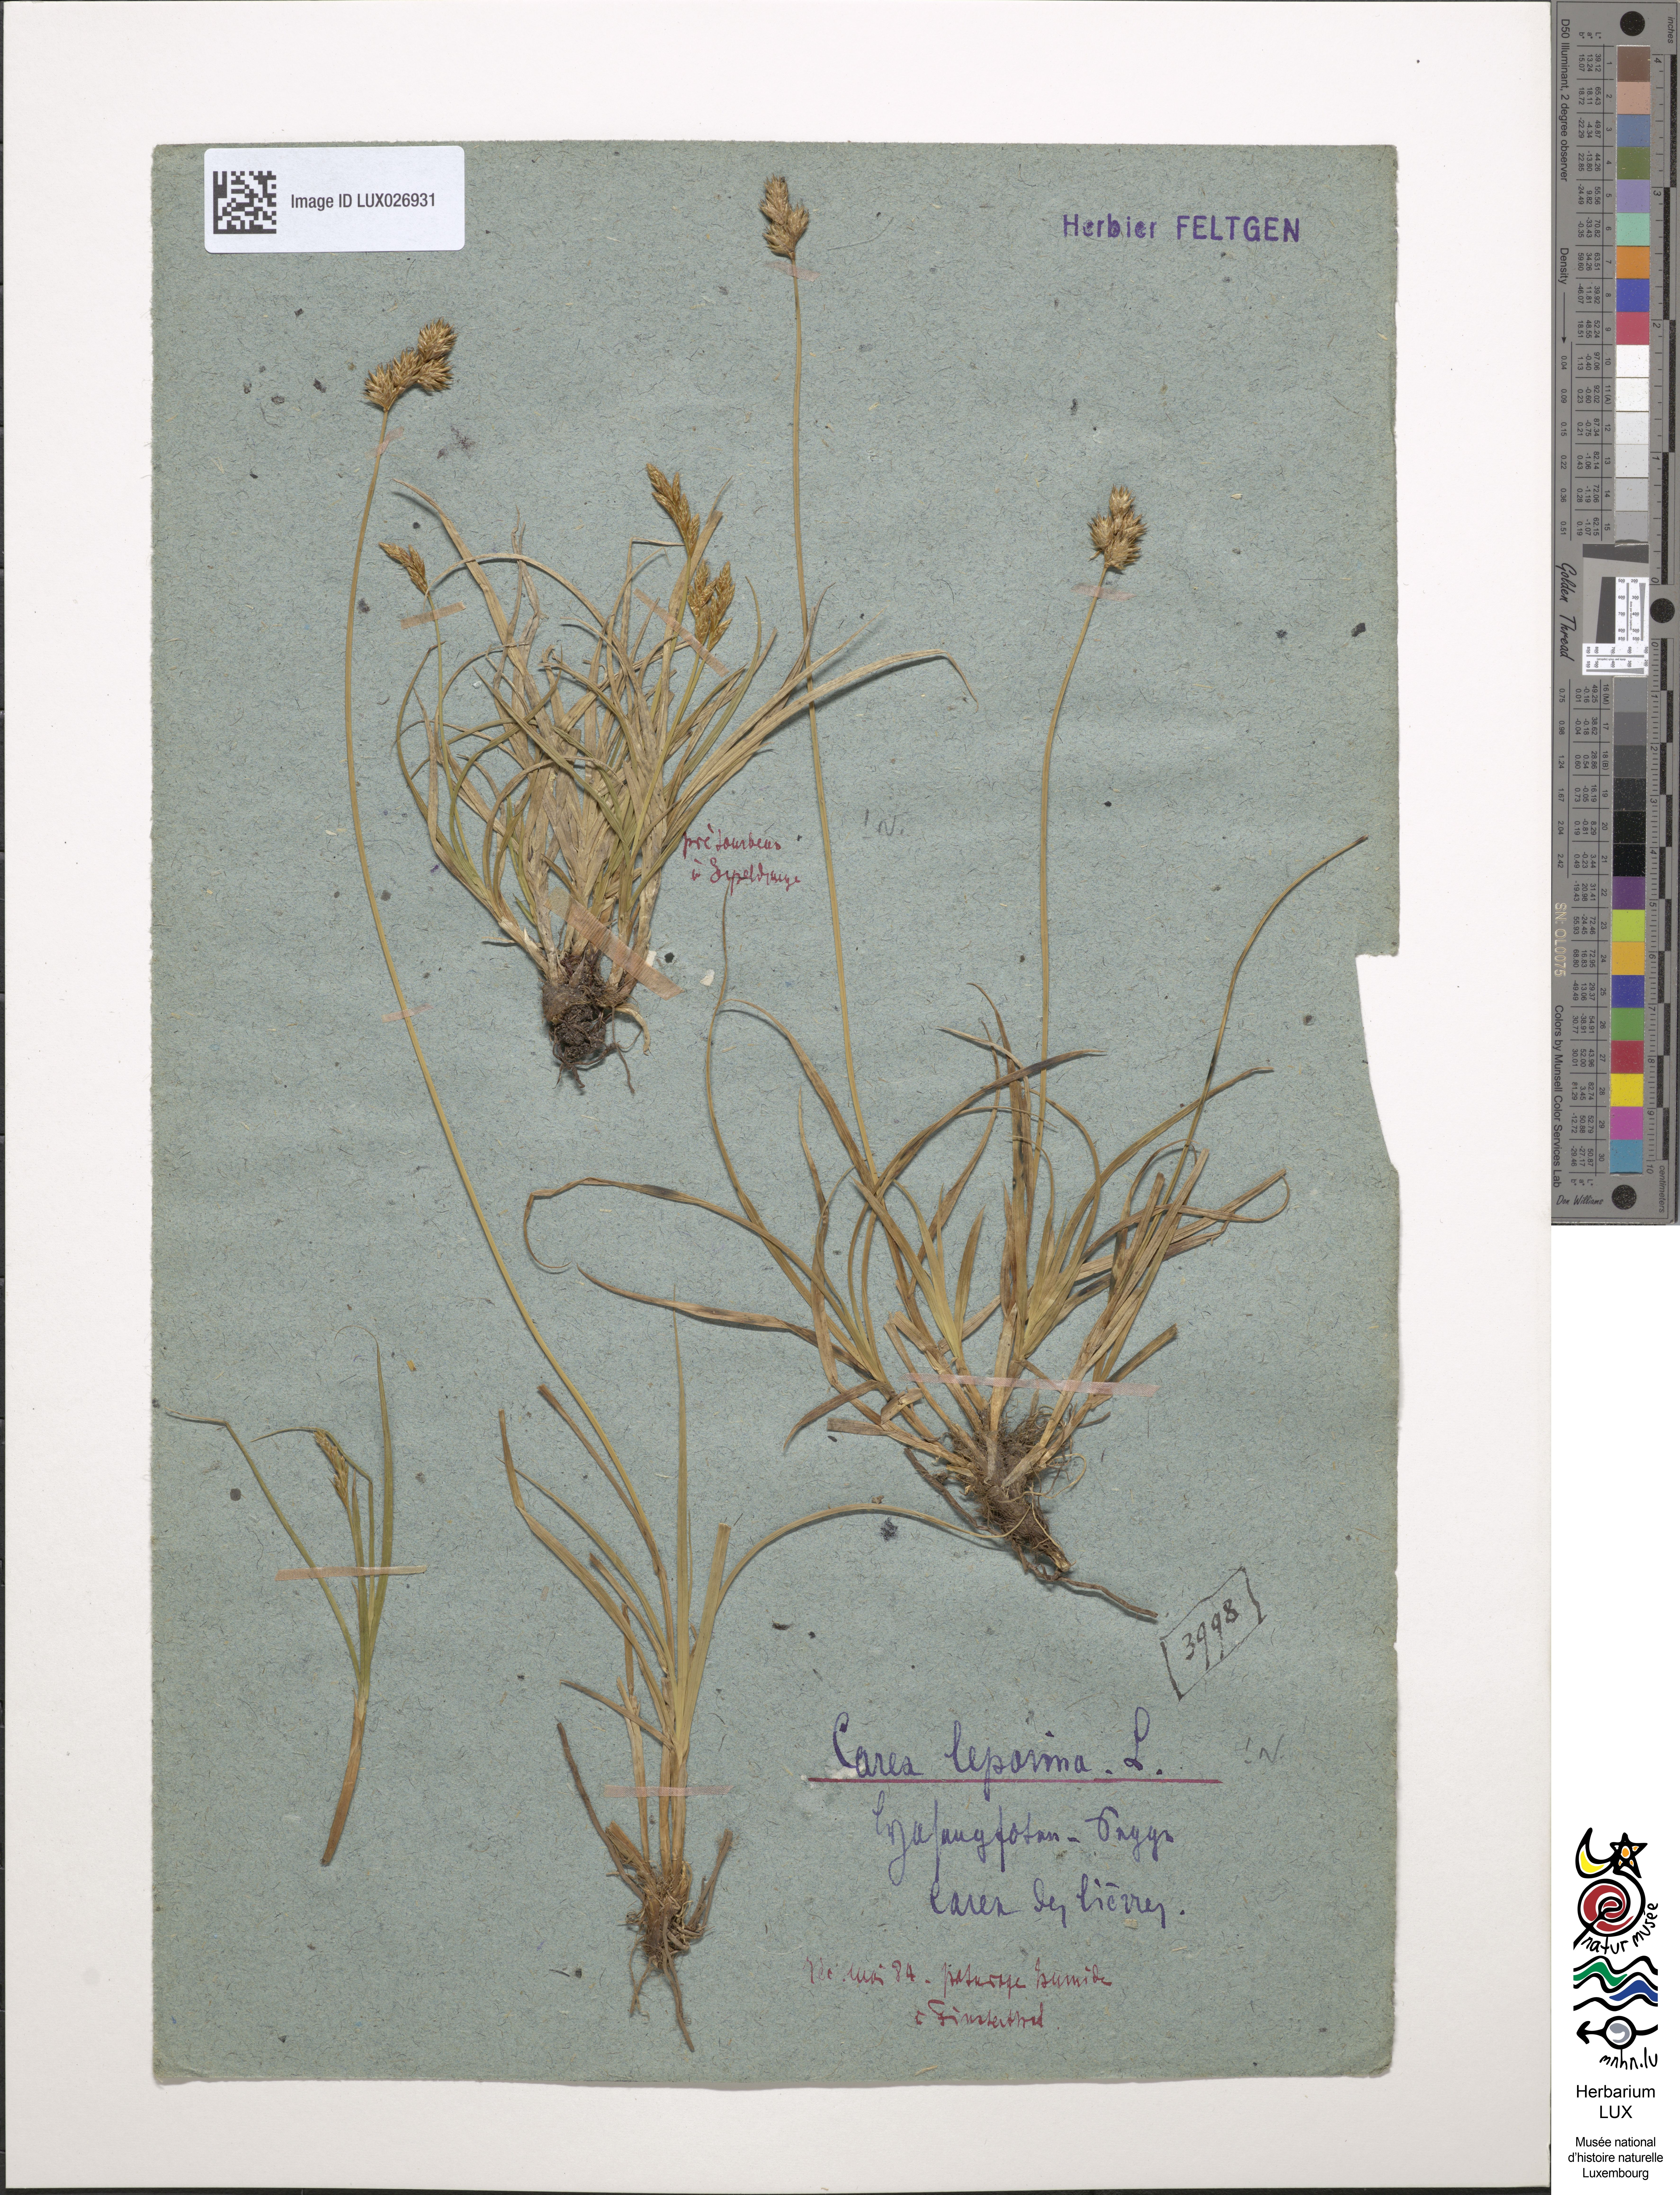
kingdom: Plantae
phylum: Tracheophyta
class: Liliopsida
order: Poales
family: Cyperaceae
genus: Carex
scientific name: Carex leporina
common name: Oval sedge
